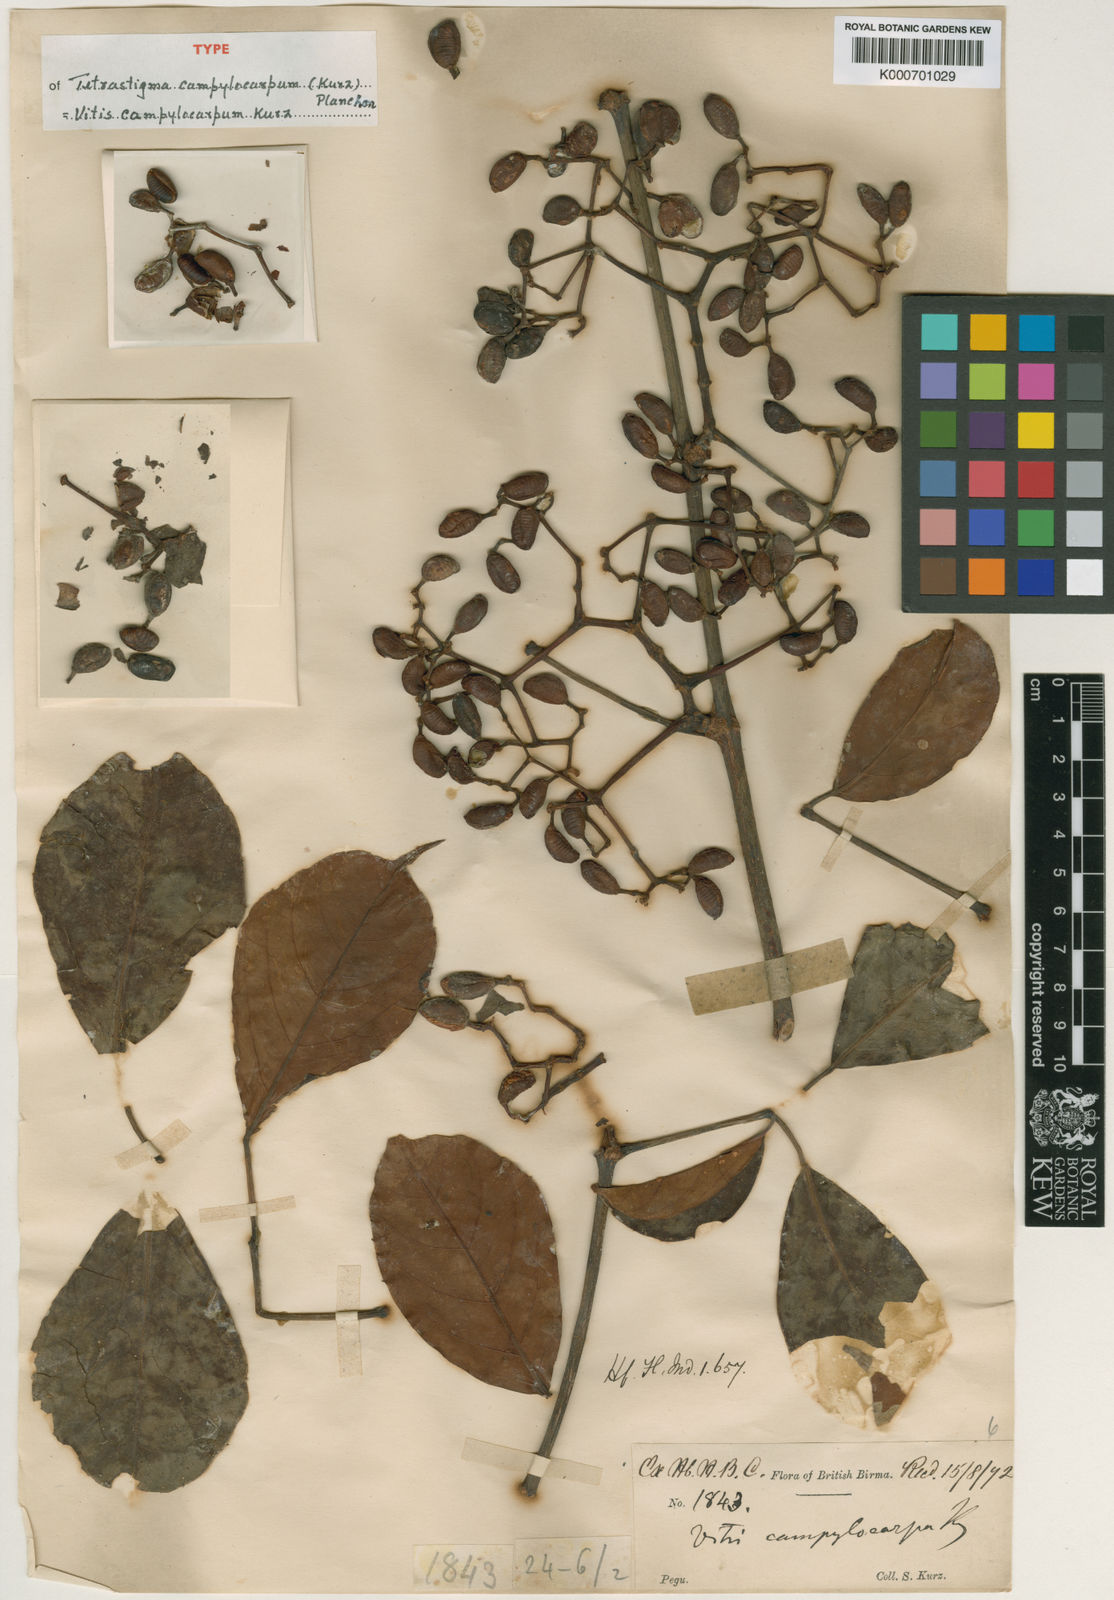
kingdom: Plantae
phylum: Tracheophyta
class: Magnoliopsida
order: Vitales
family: Vitaceae
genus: Tetrastigma
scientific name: Tetrastigma campylocarpum
